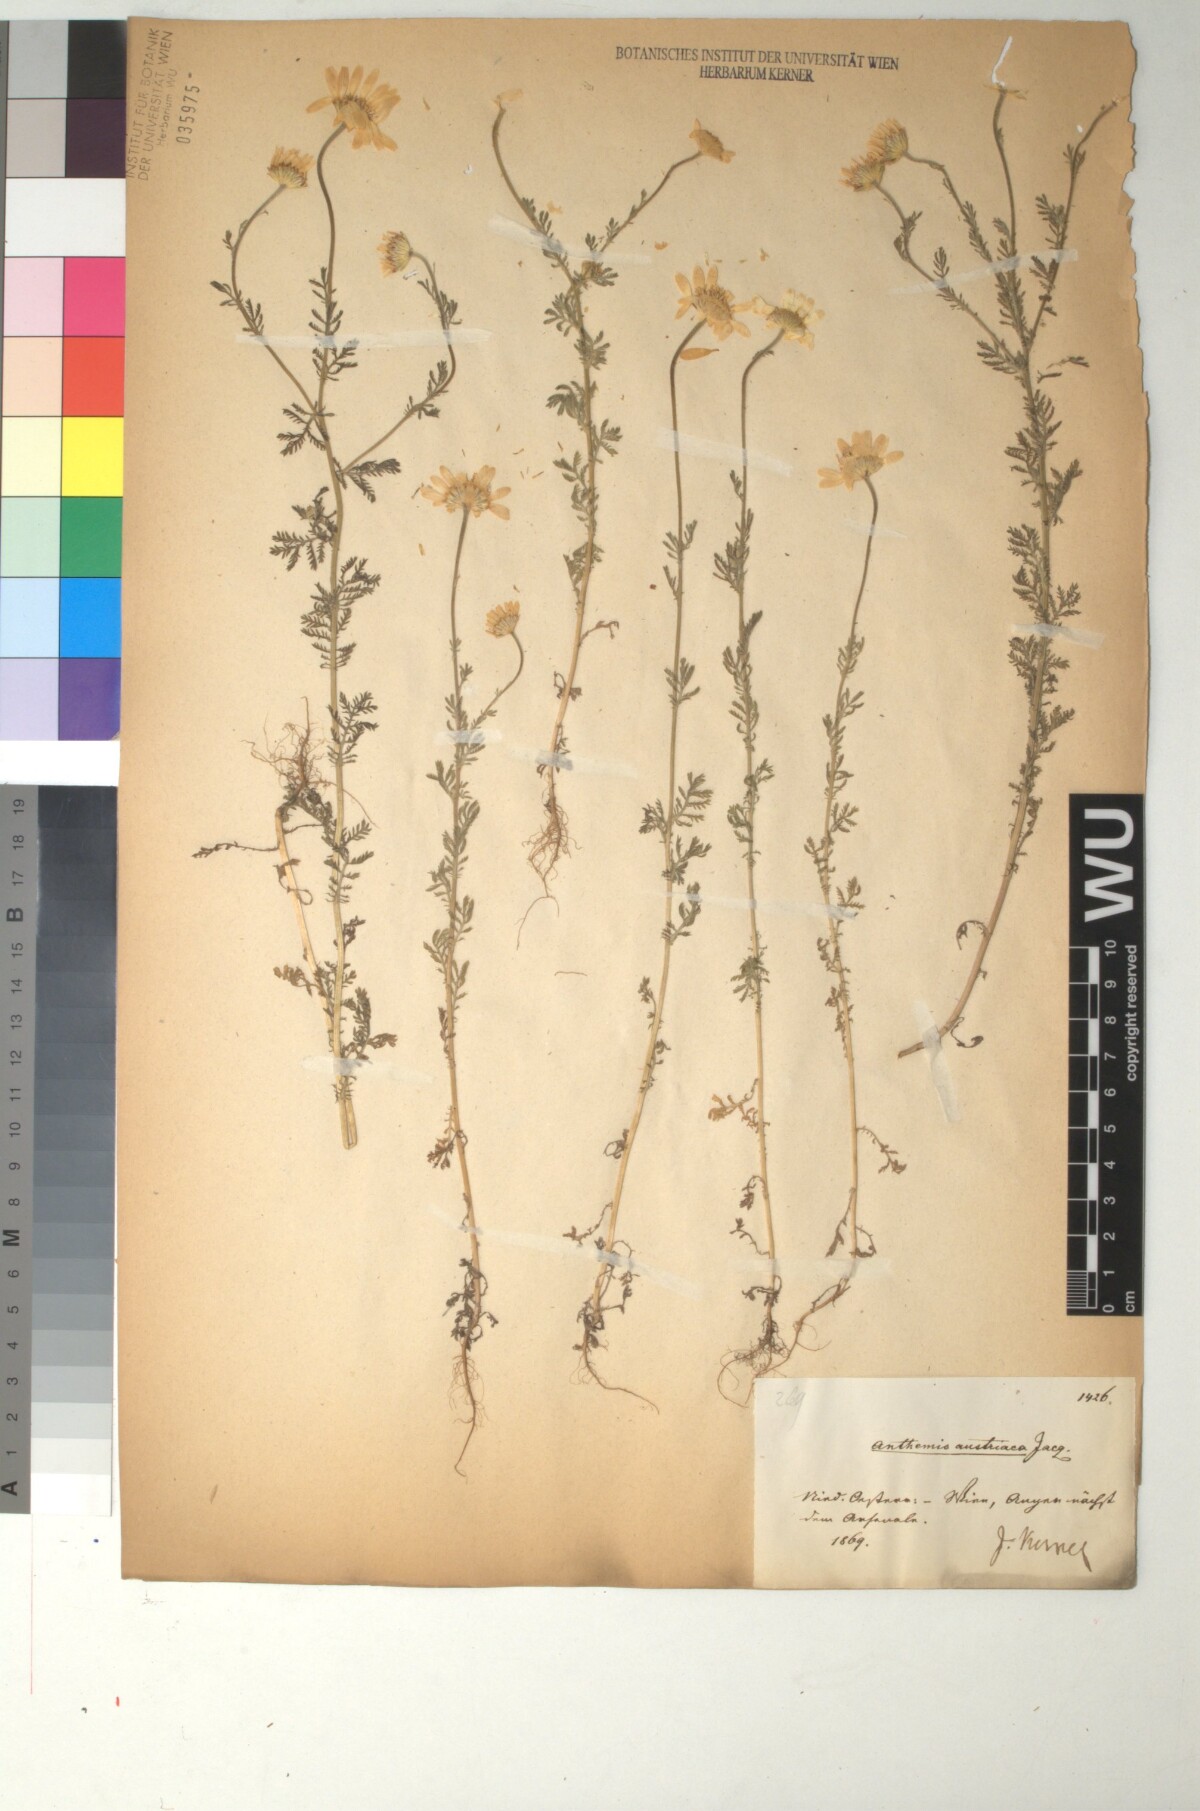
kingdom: Plantae
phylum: Tracheophyta
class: Magnoliopsida
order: Asterales
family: Asteraceae
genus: Cota
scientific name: Cota austriaca
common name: Austrian chamomile
